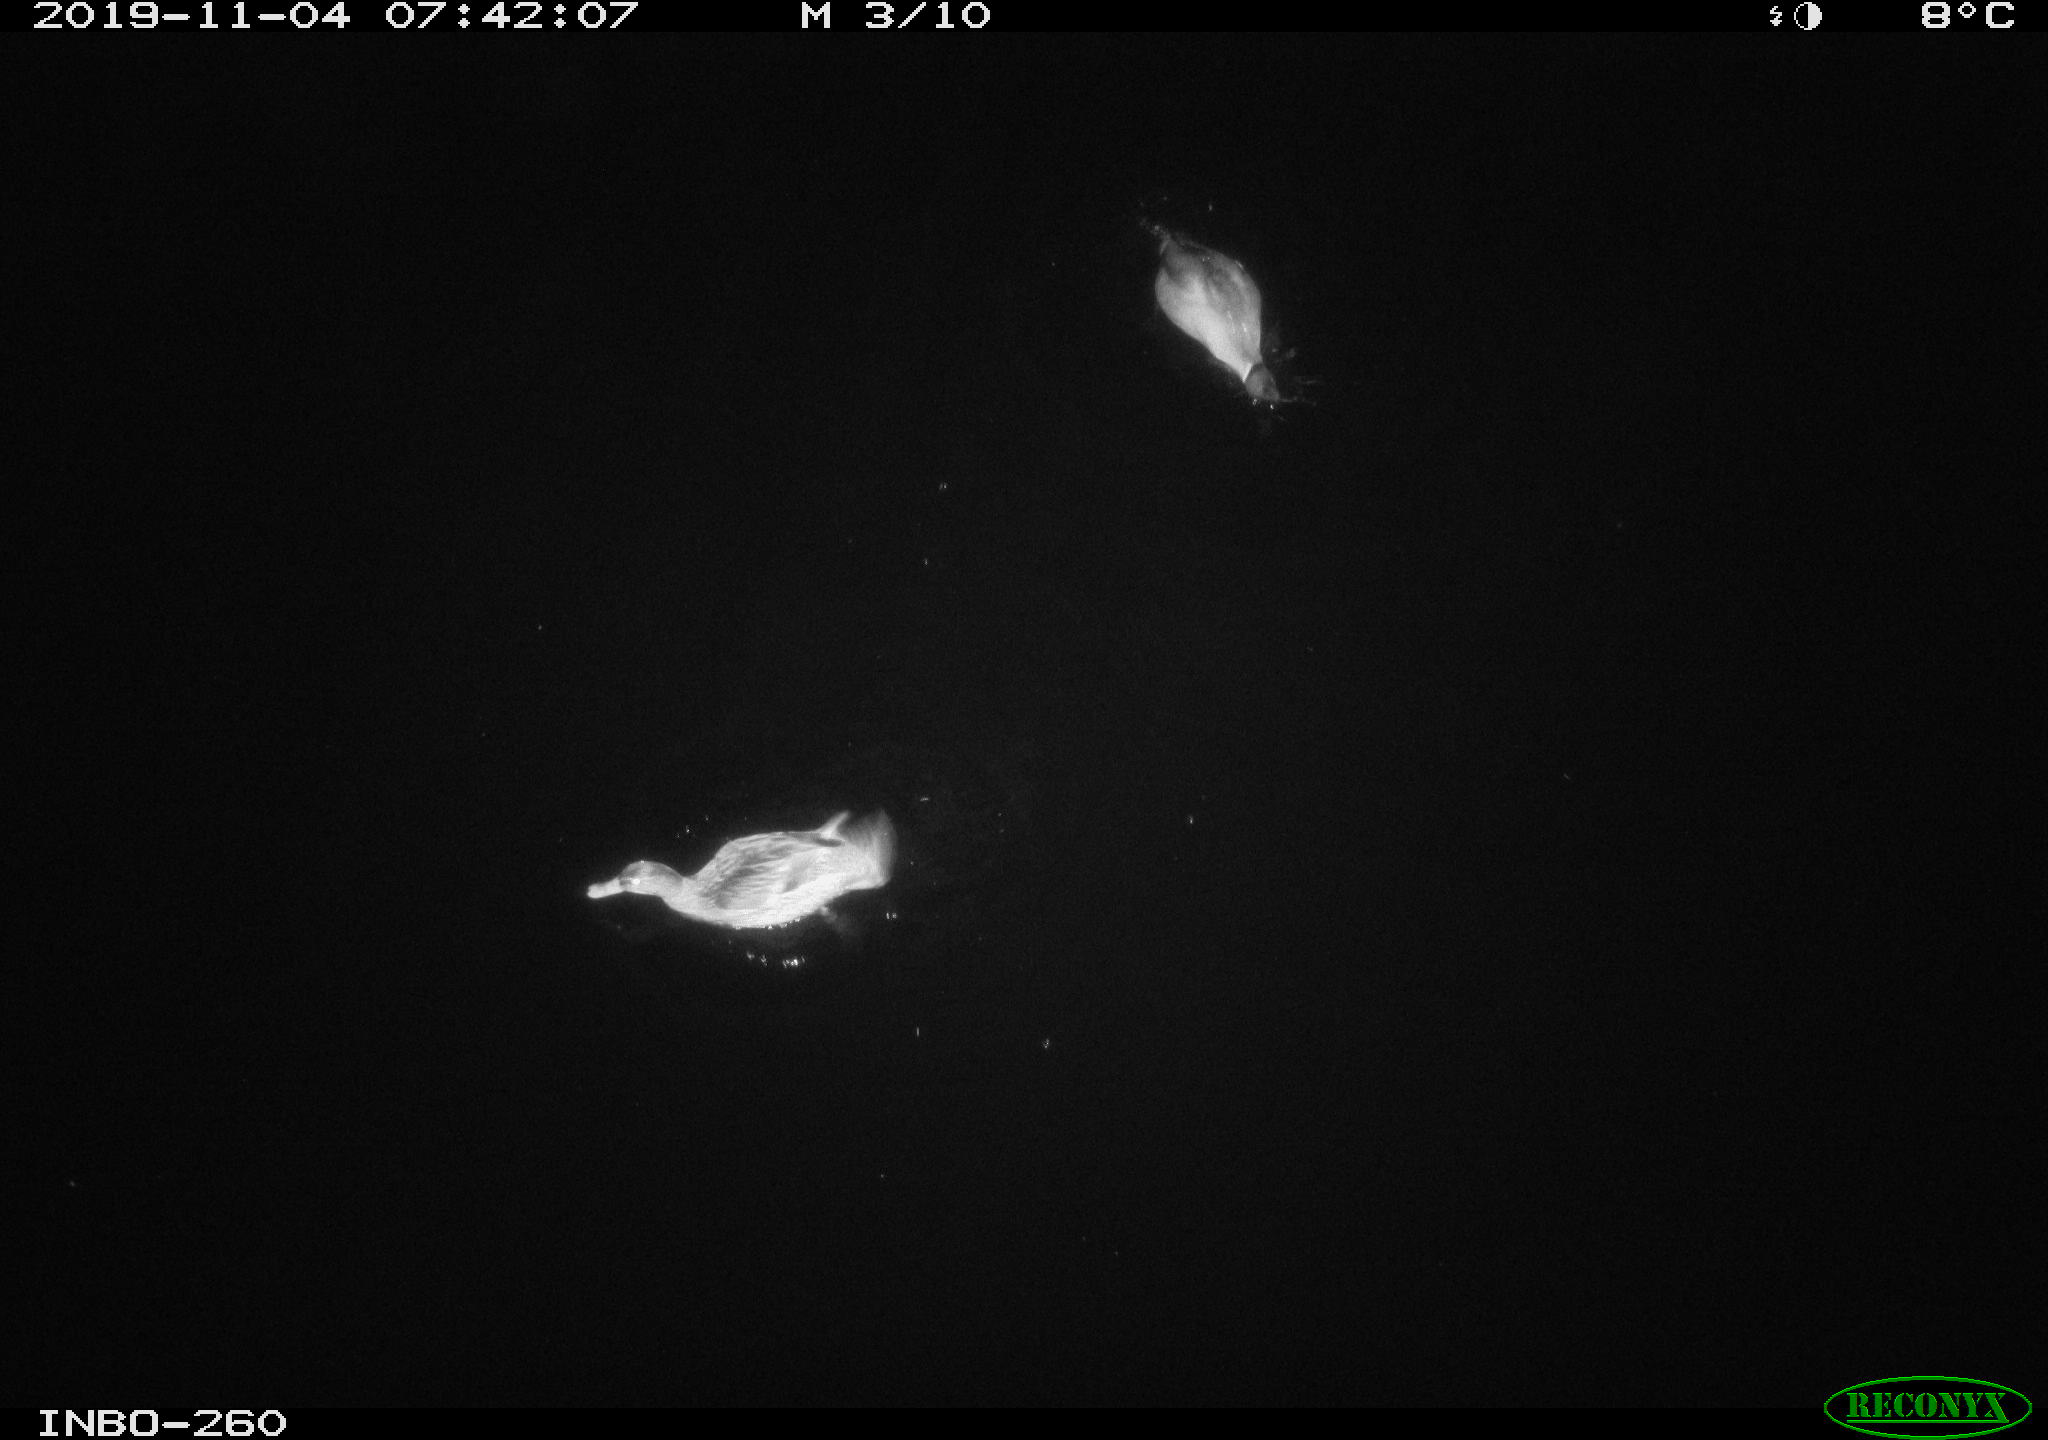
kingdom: Animalia
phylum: Chordata
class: Aves
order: Anseriformes
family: Anatidae
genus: Anas
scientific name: Anas platyrhynchos
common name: Mallard
